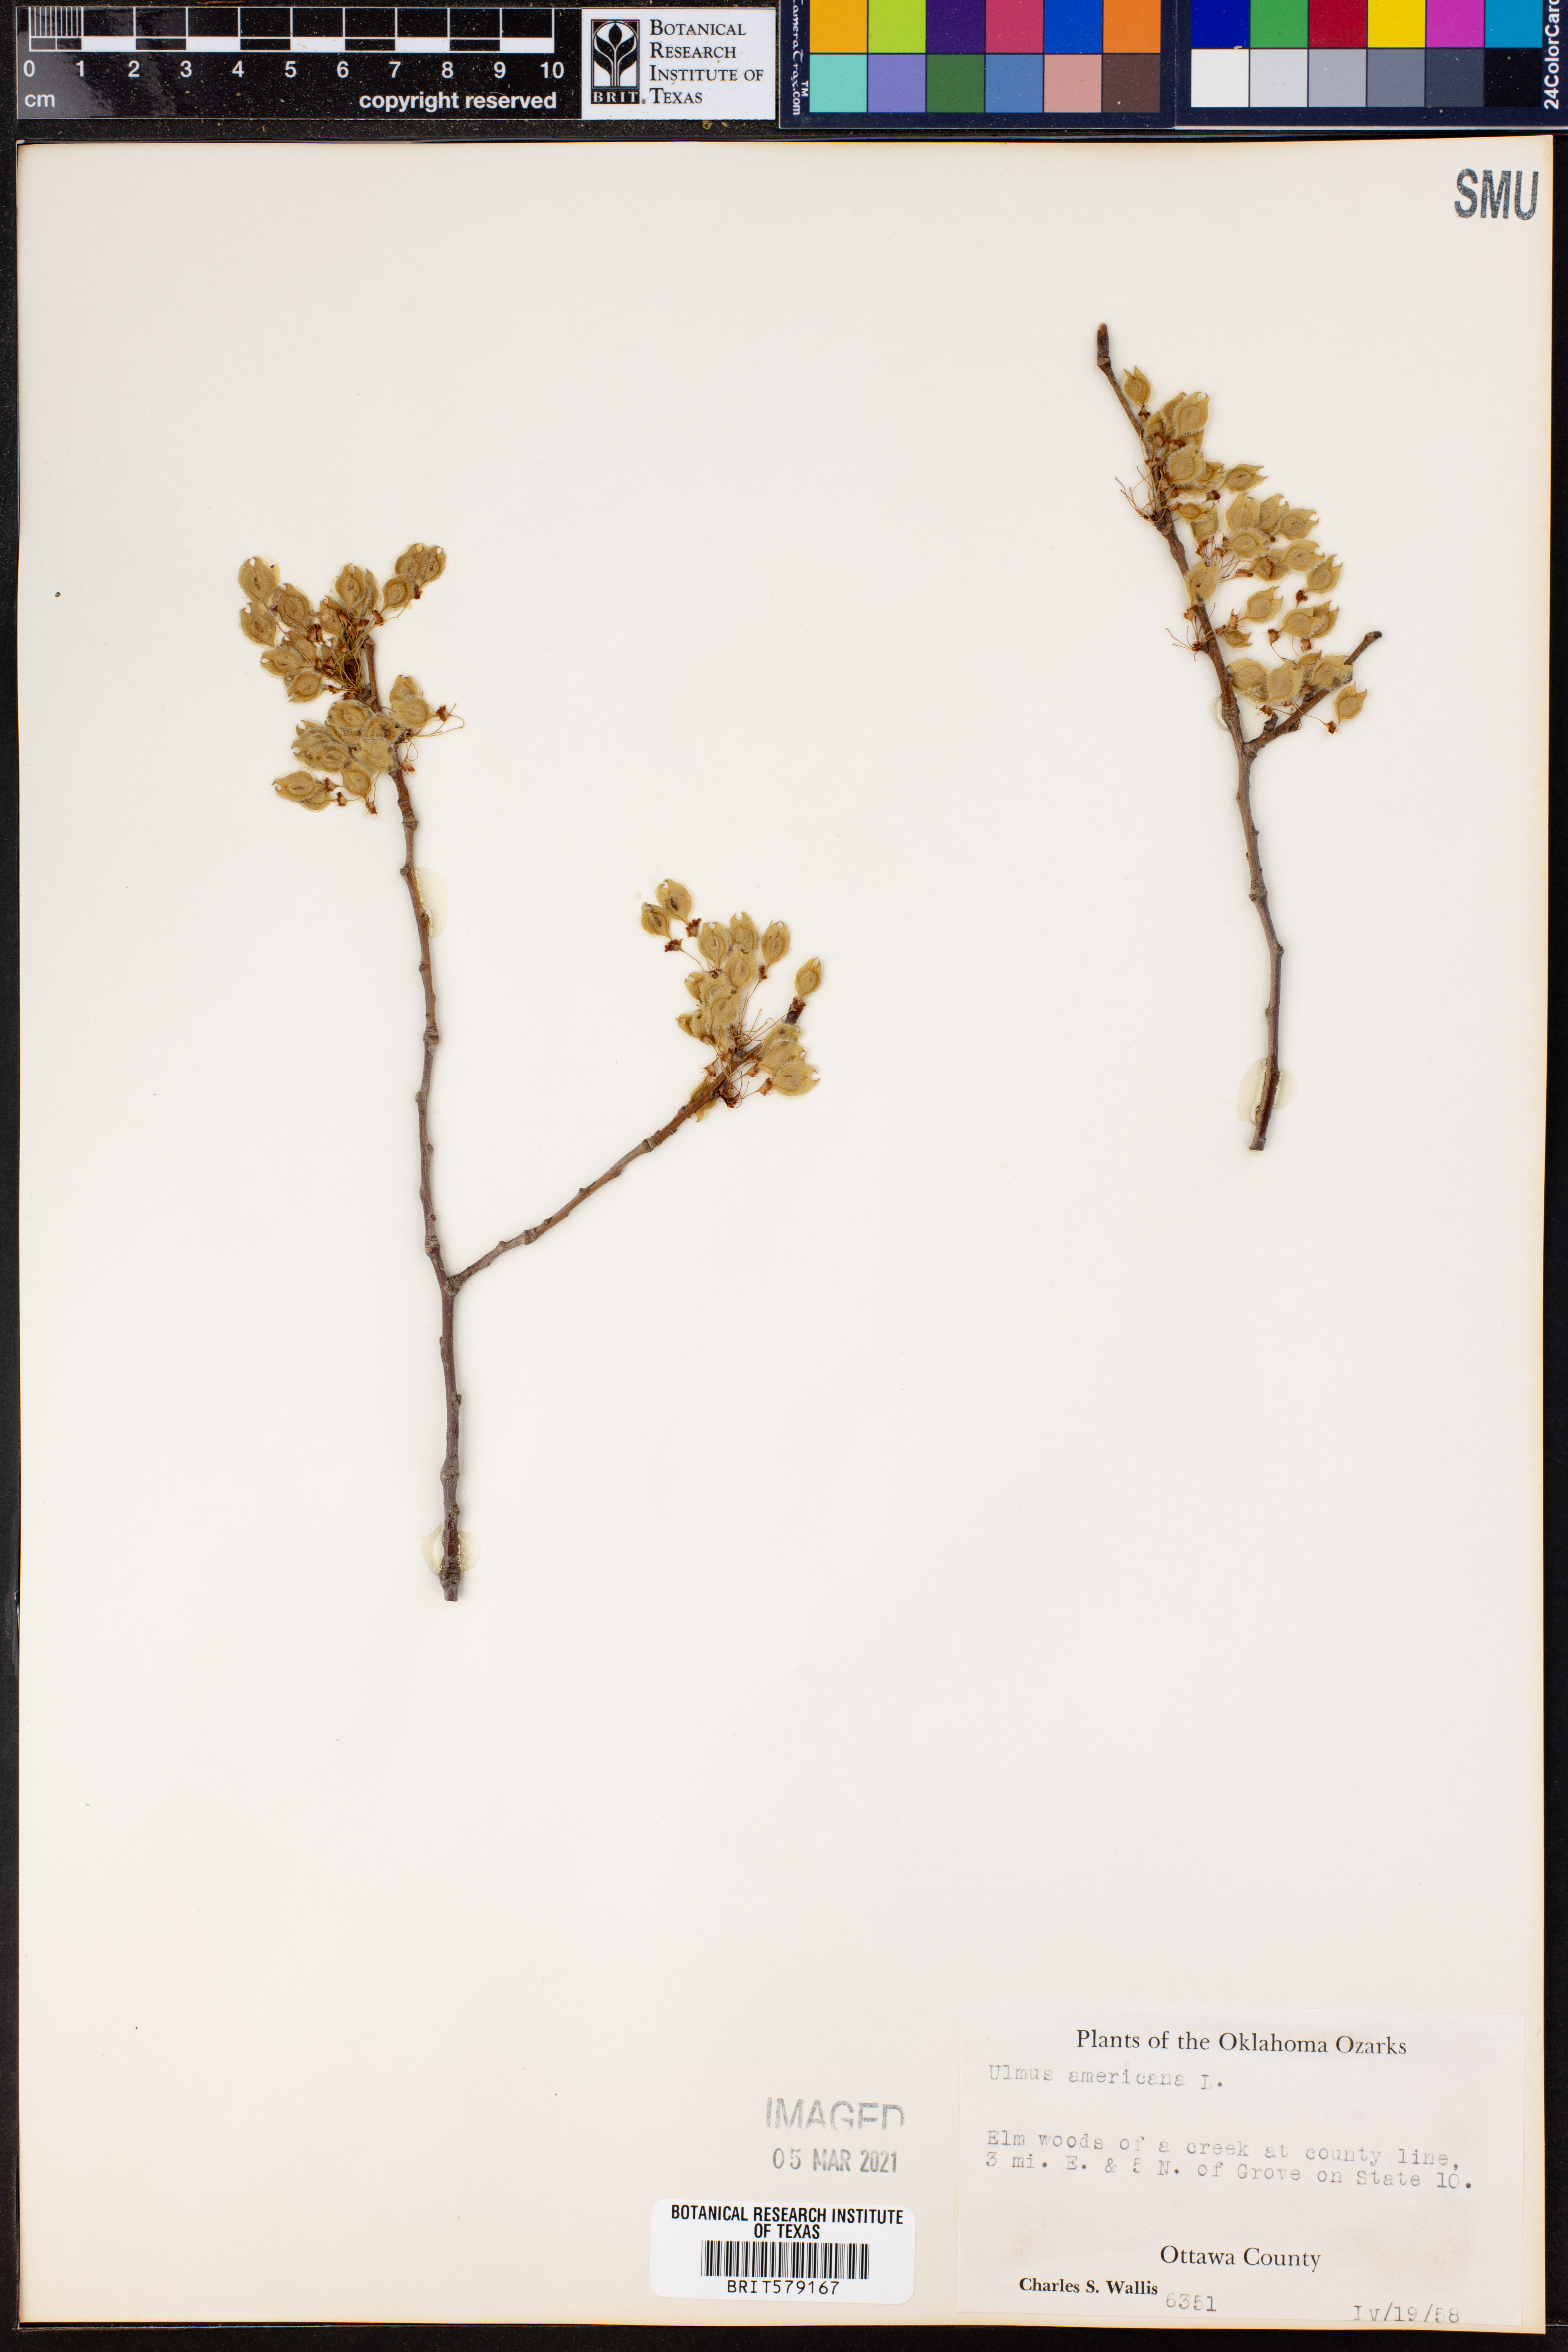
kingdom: Plantae
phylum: Tracheophyta
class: Magnoliopsida
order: Rosales
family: Ulmaceae
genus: Ulmus
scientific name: Ulmus americana
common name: American elm
